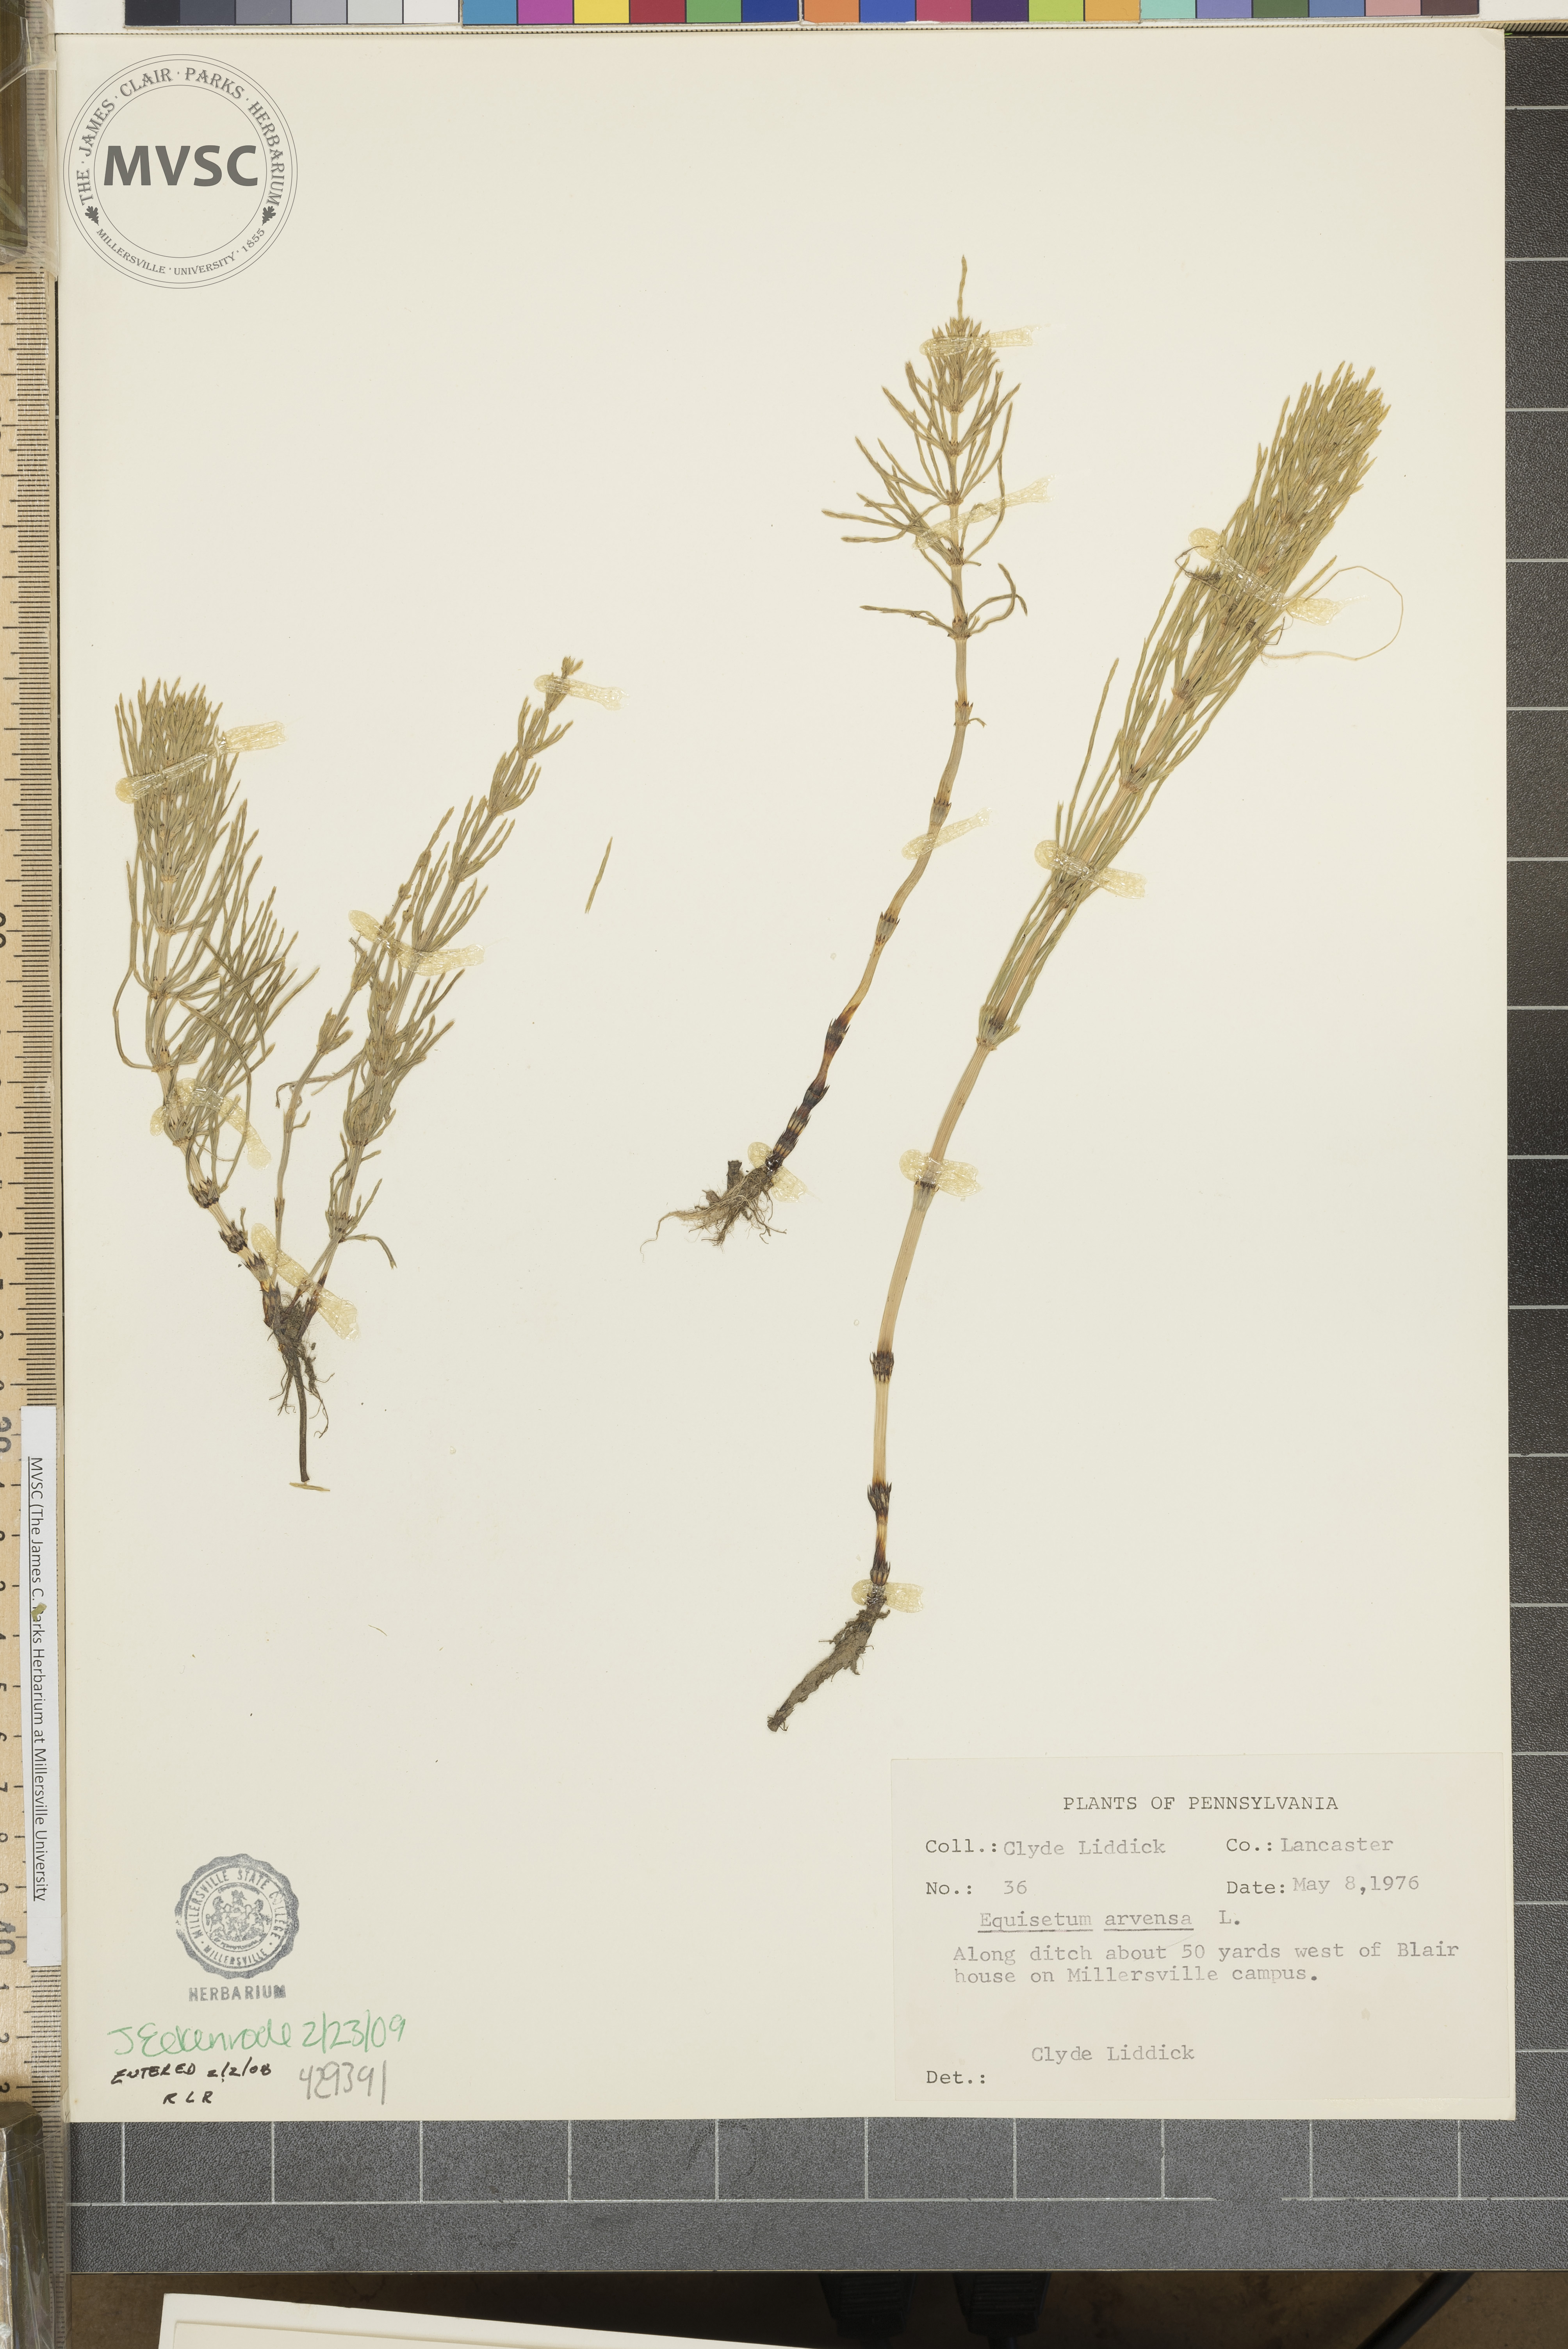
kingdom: Plantae
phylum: Tracheophyta
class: Polypodiopsida
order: Equisetales
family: Equisetaceae
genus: Equisetum
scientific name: Equisetum arvense
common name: Field horsetail
